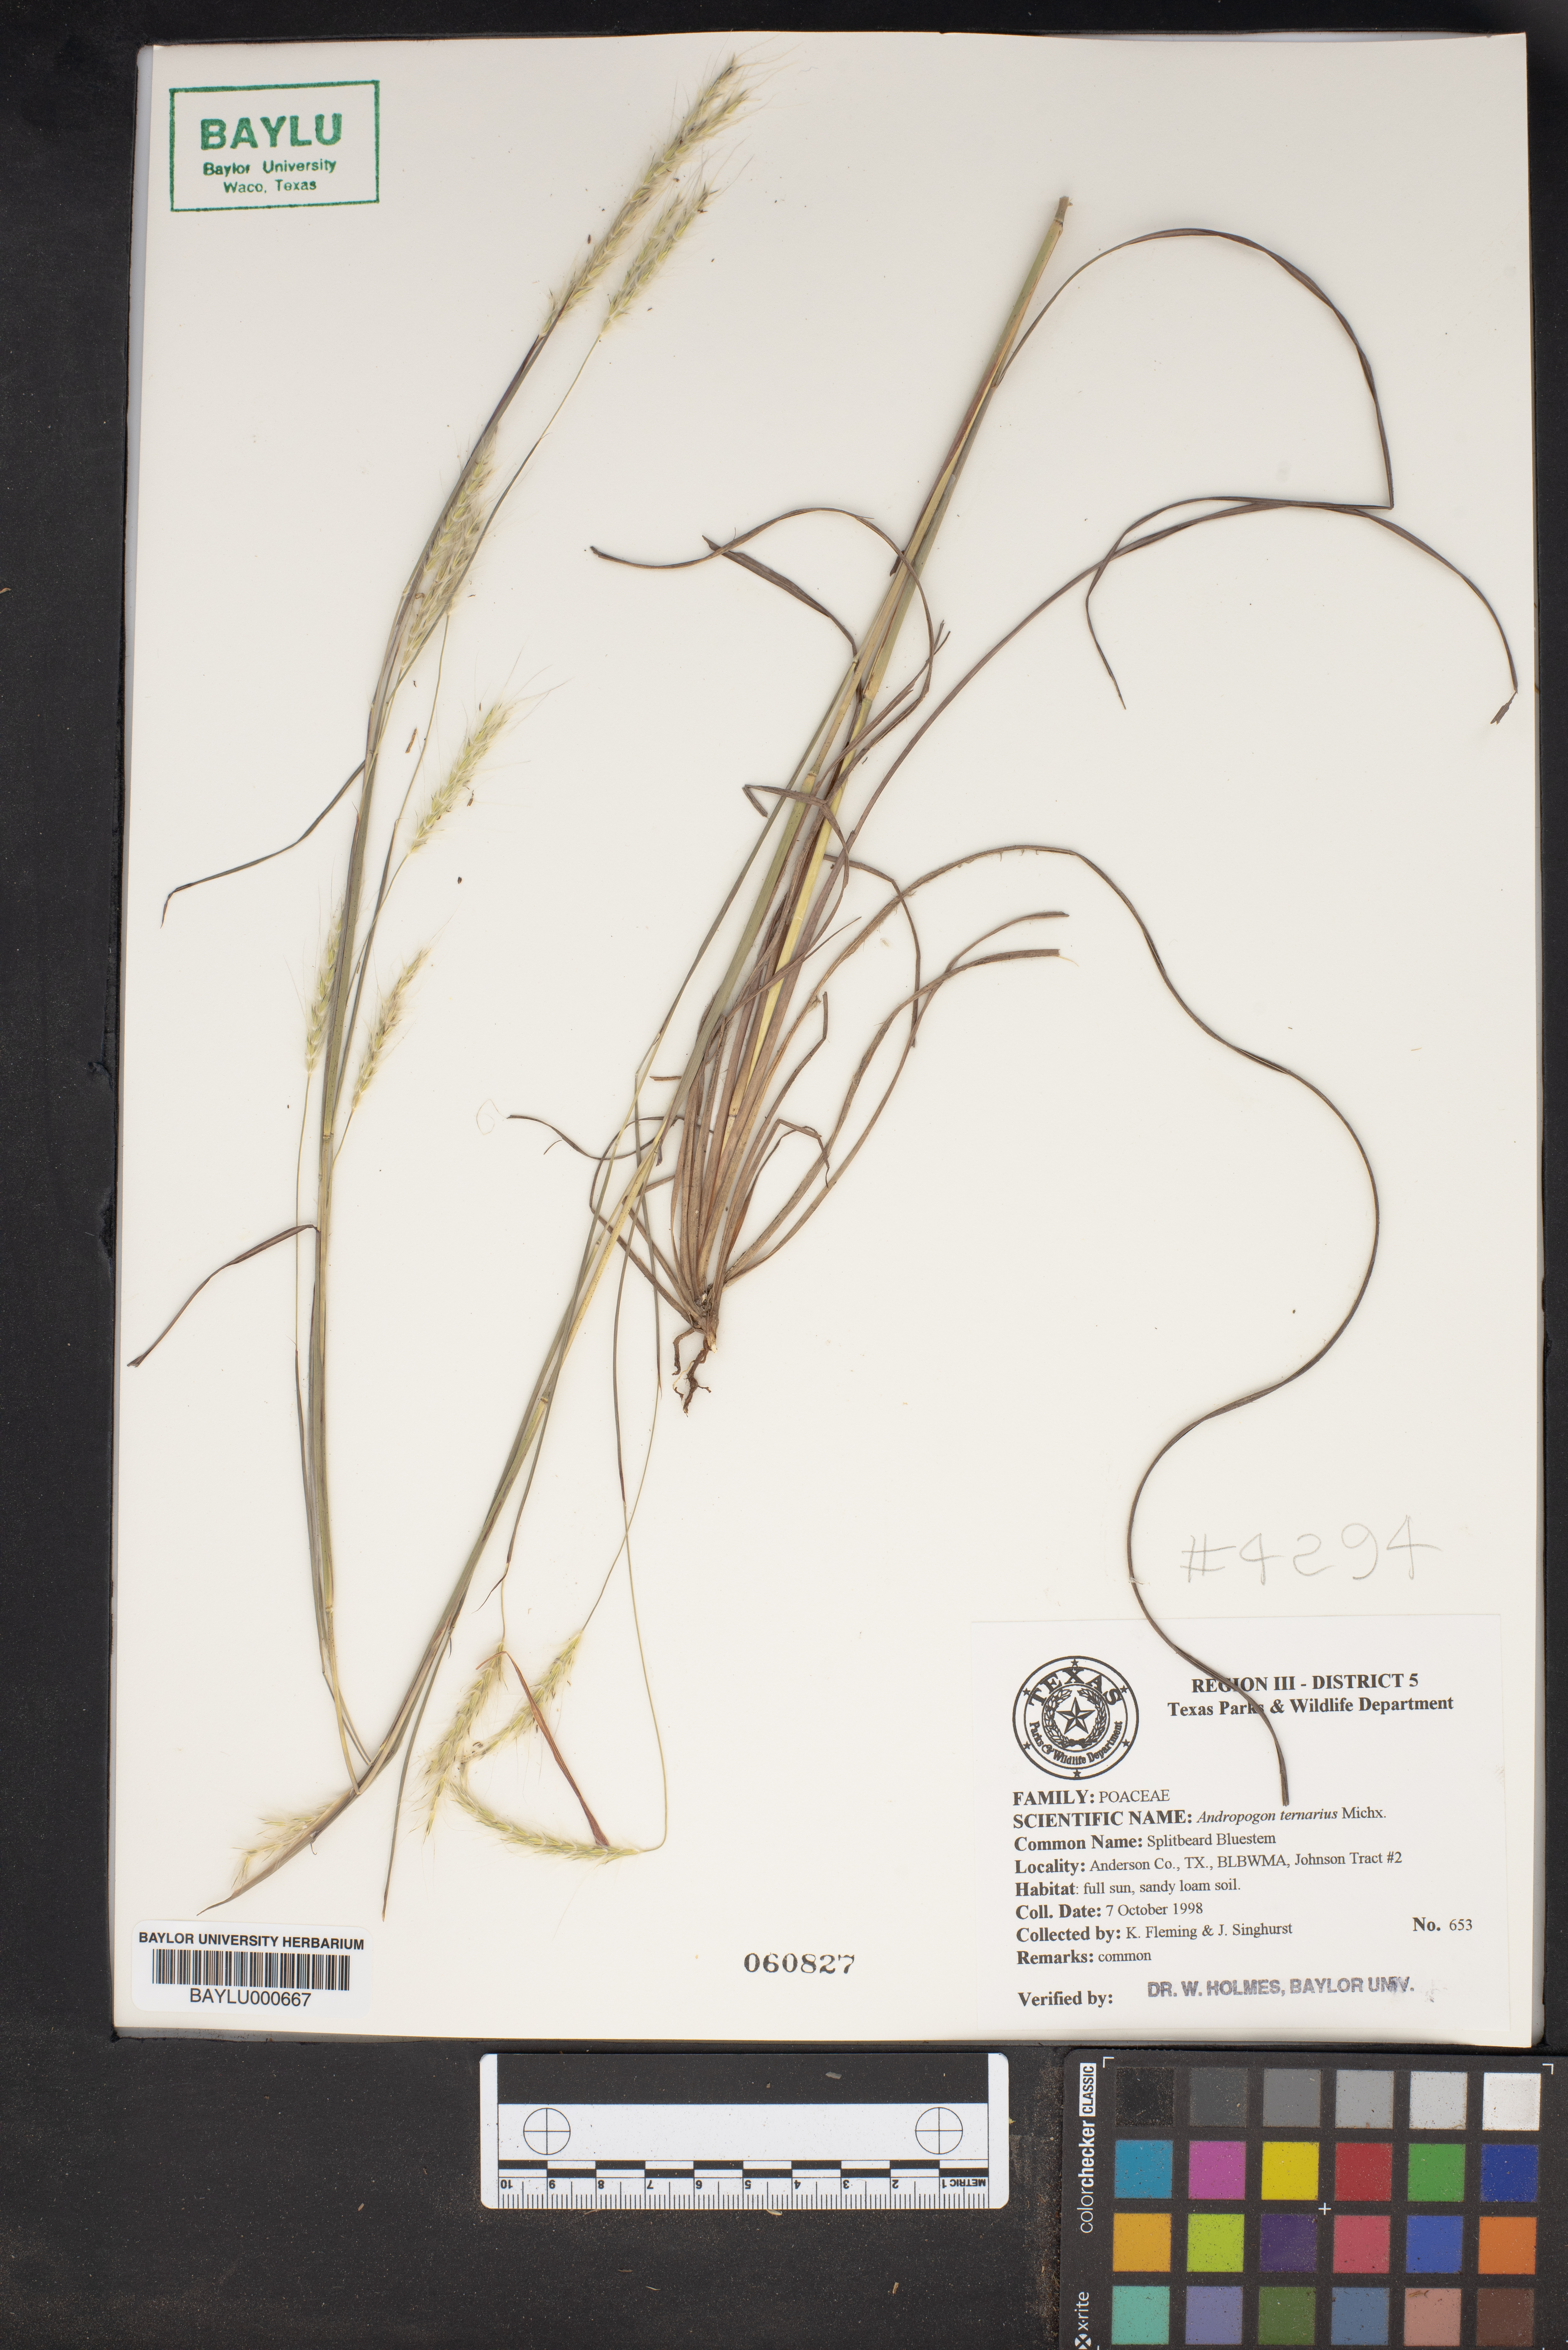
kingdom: Plantae
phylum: Tracheophyta
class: Liliopsida
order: Poales
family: Poaceae
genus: Andropogon
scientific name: Andropogon ternarius
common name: Split bluestem
